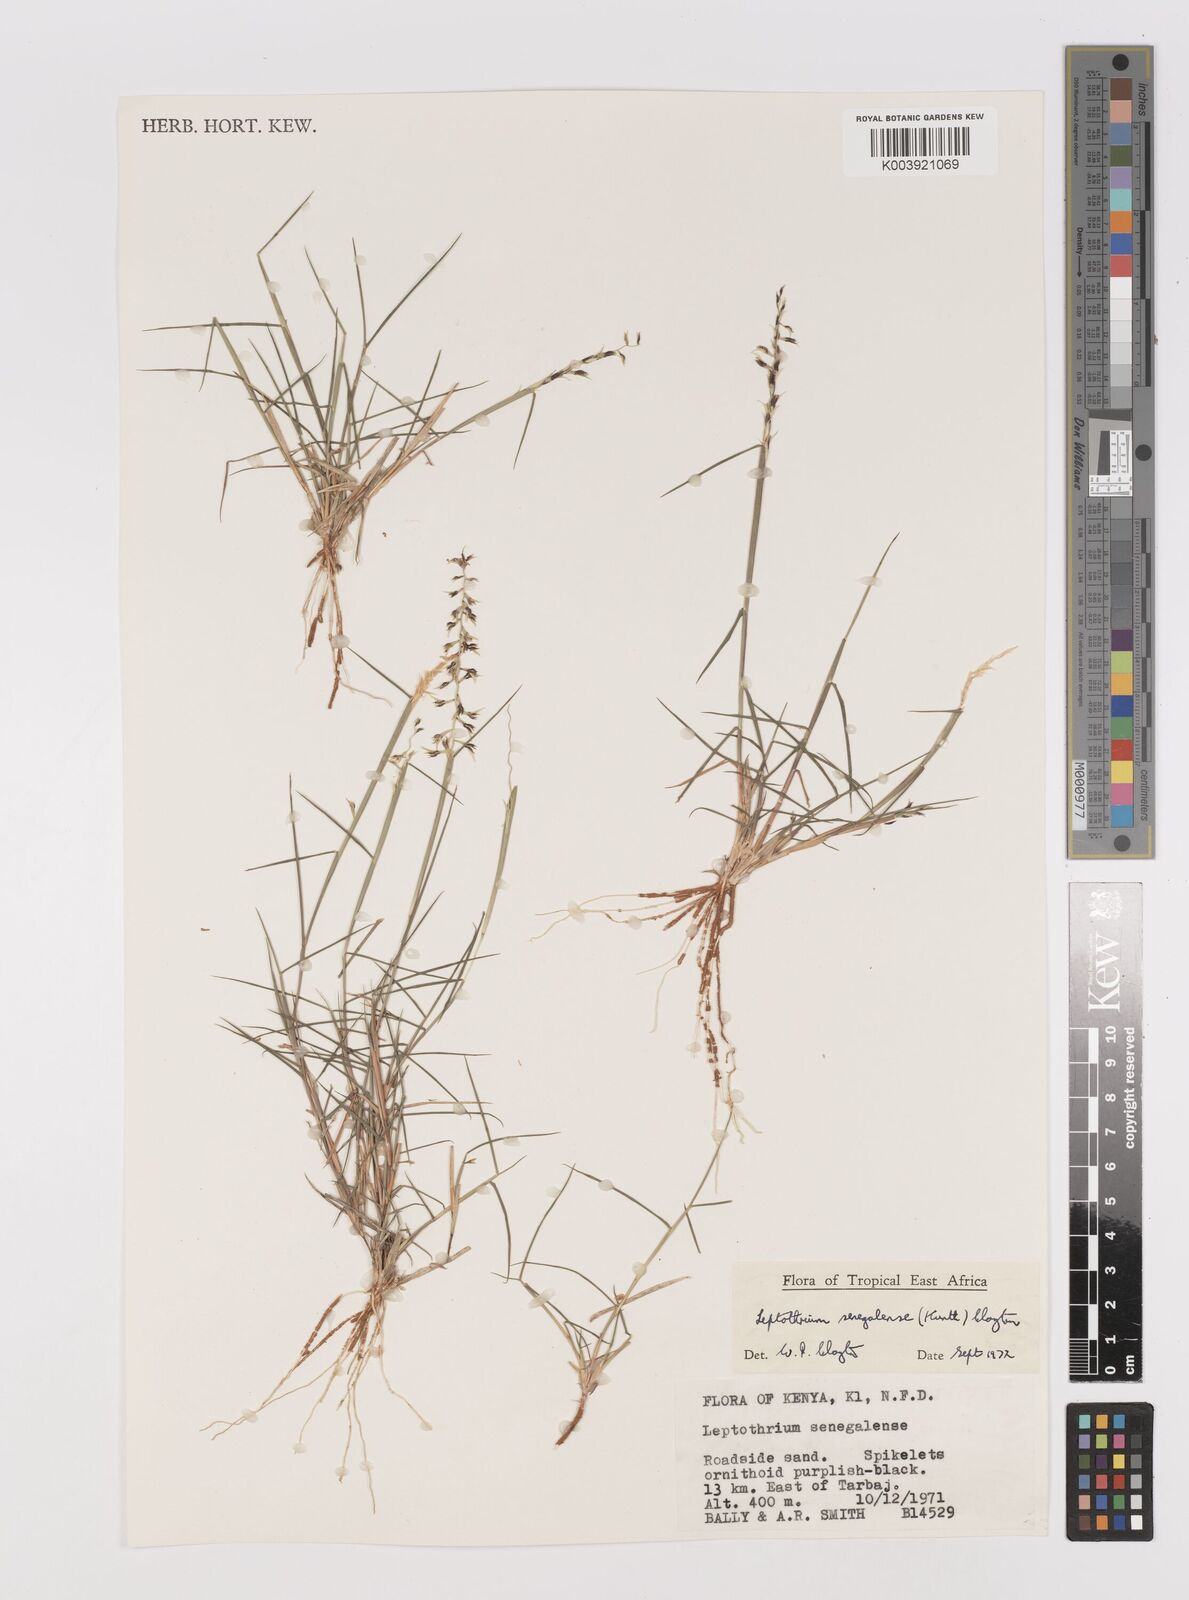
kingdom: Plantae
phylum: Tracheophyta
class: Liliopsida
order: Poales
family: Poaceae
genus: Leptothrium
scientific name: Leptothrium senegalense
